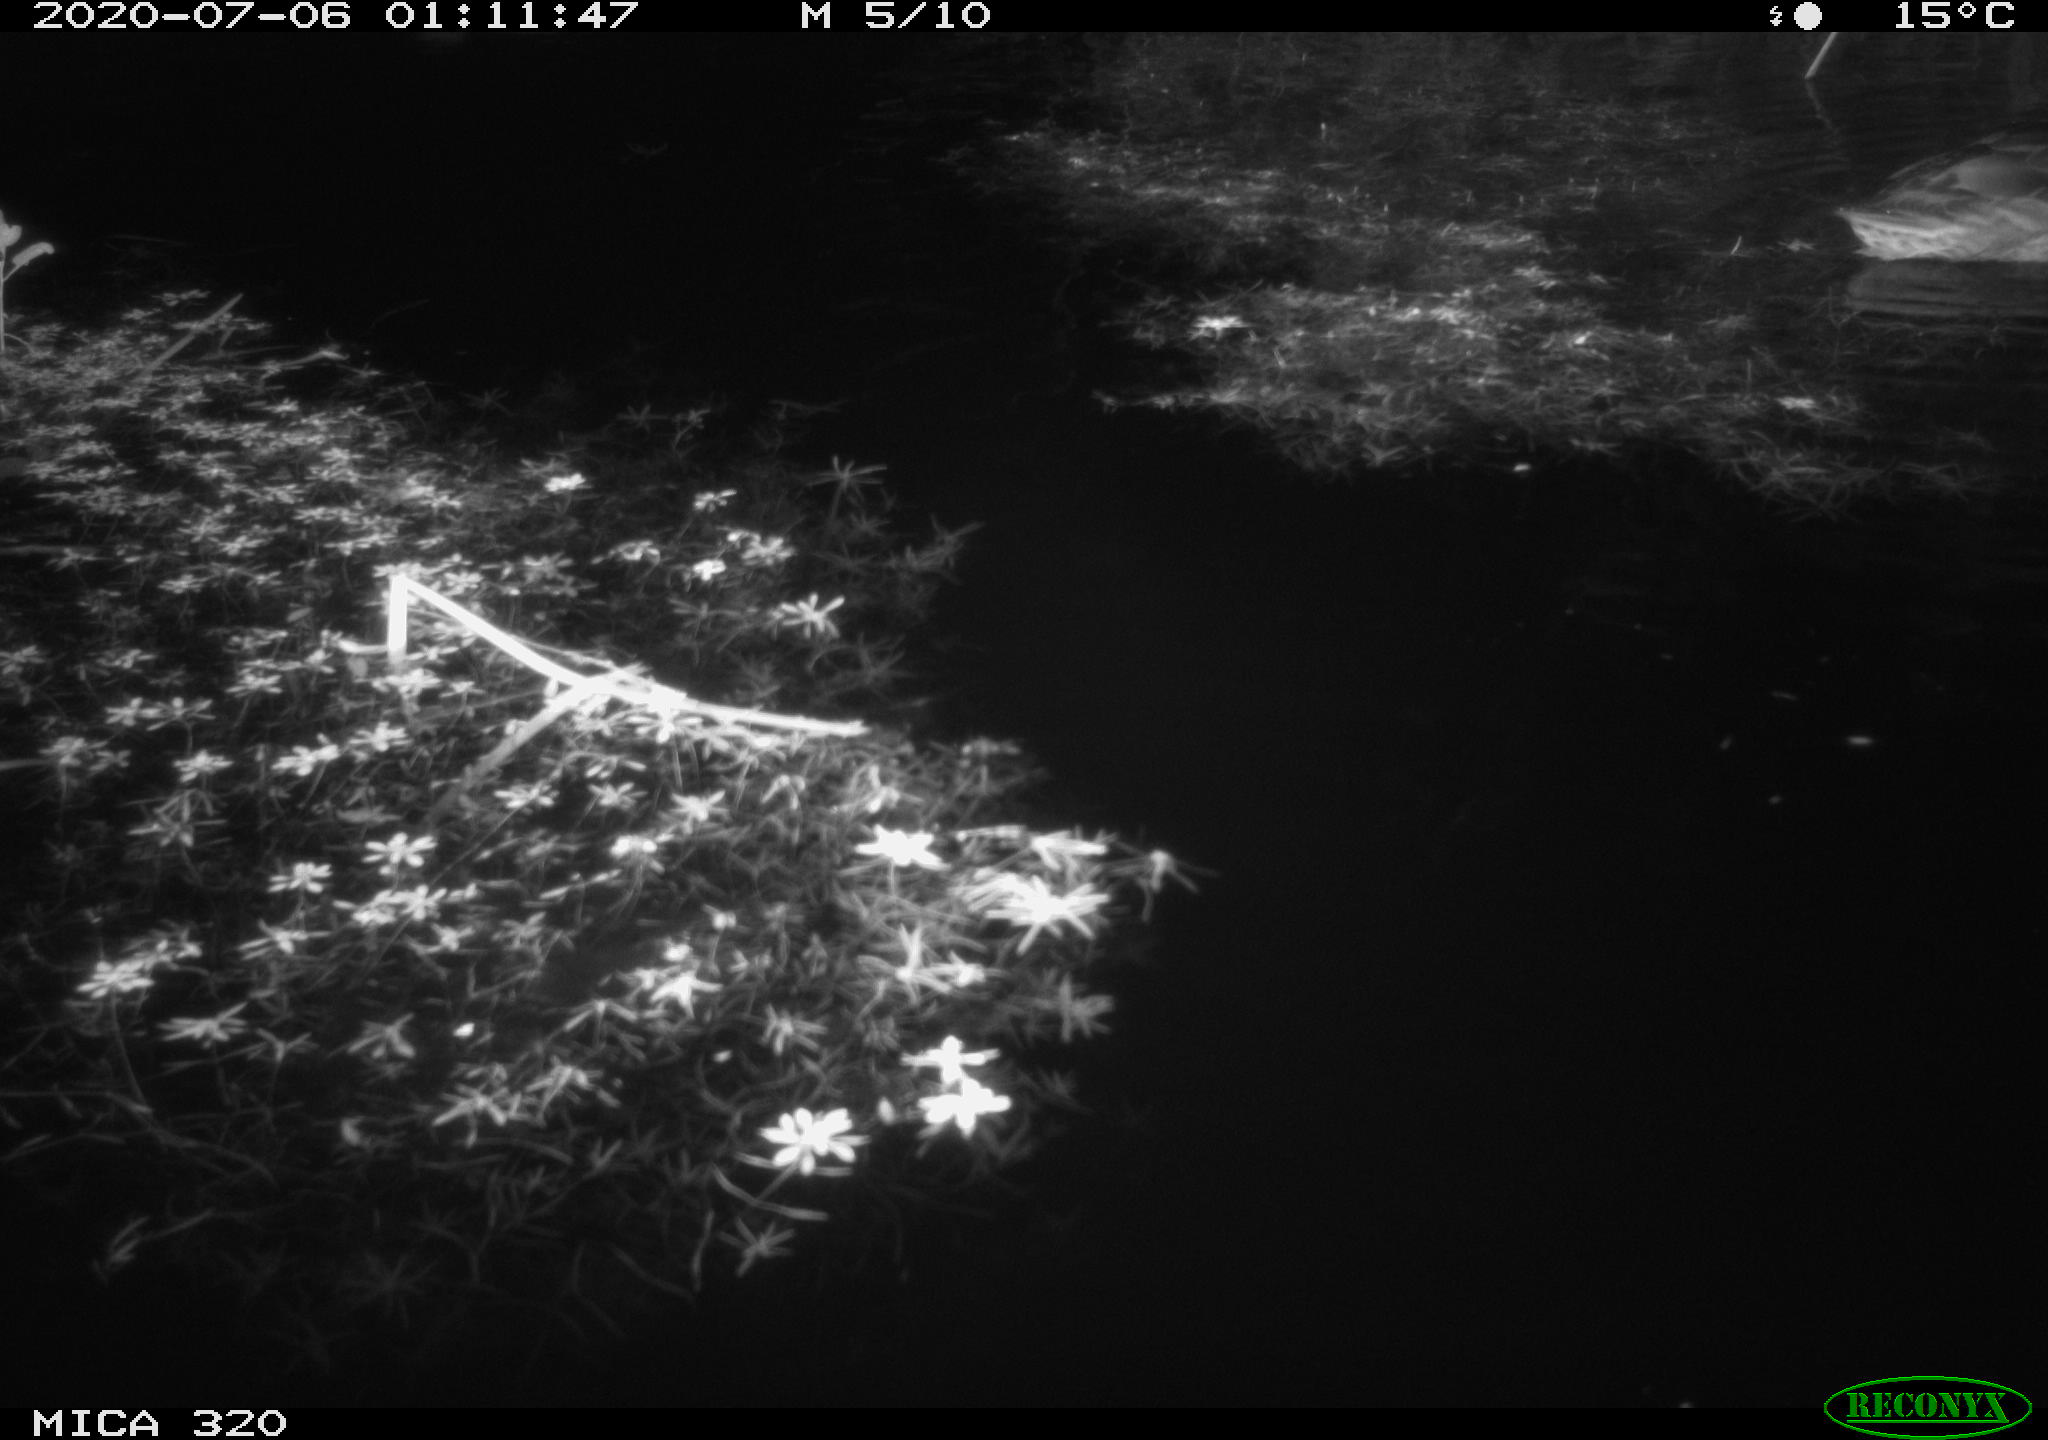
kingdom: Animalia
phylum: Chordata
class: Aves
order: Anseriformes
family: Anatidae
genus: Anas
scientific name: Anas platyrhynchos
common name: Mallard
